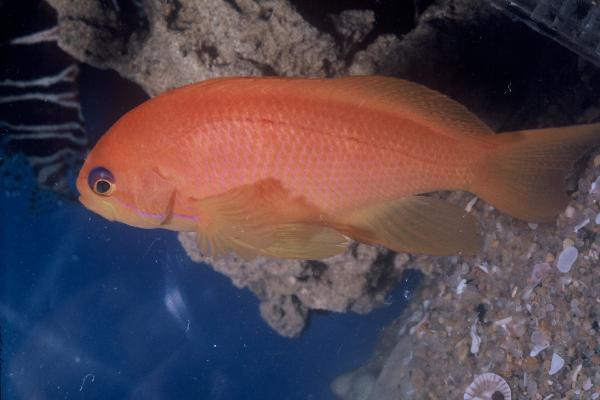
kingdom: Animalia
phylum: Chordata
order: Perciformes
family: Serranidae
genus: Pseudanthias
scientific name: Pseudanthias squamipinnis
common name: Scalefin anthias
